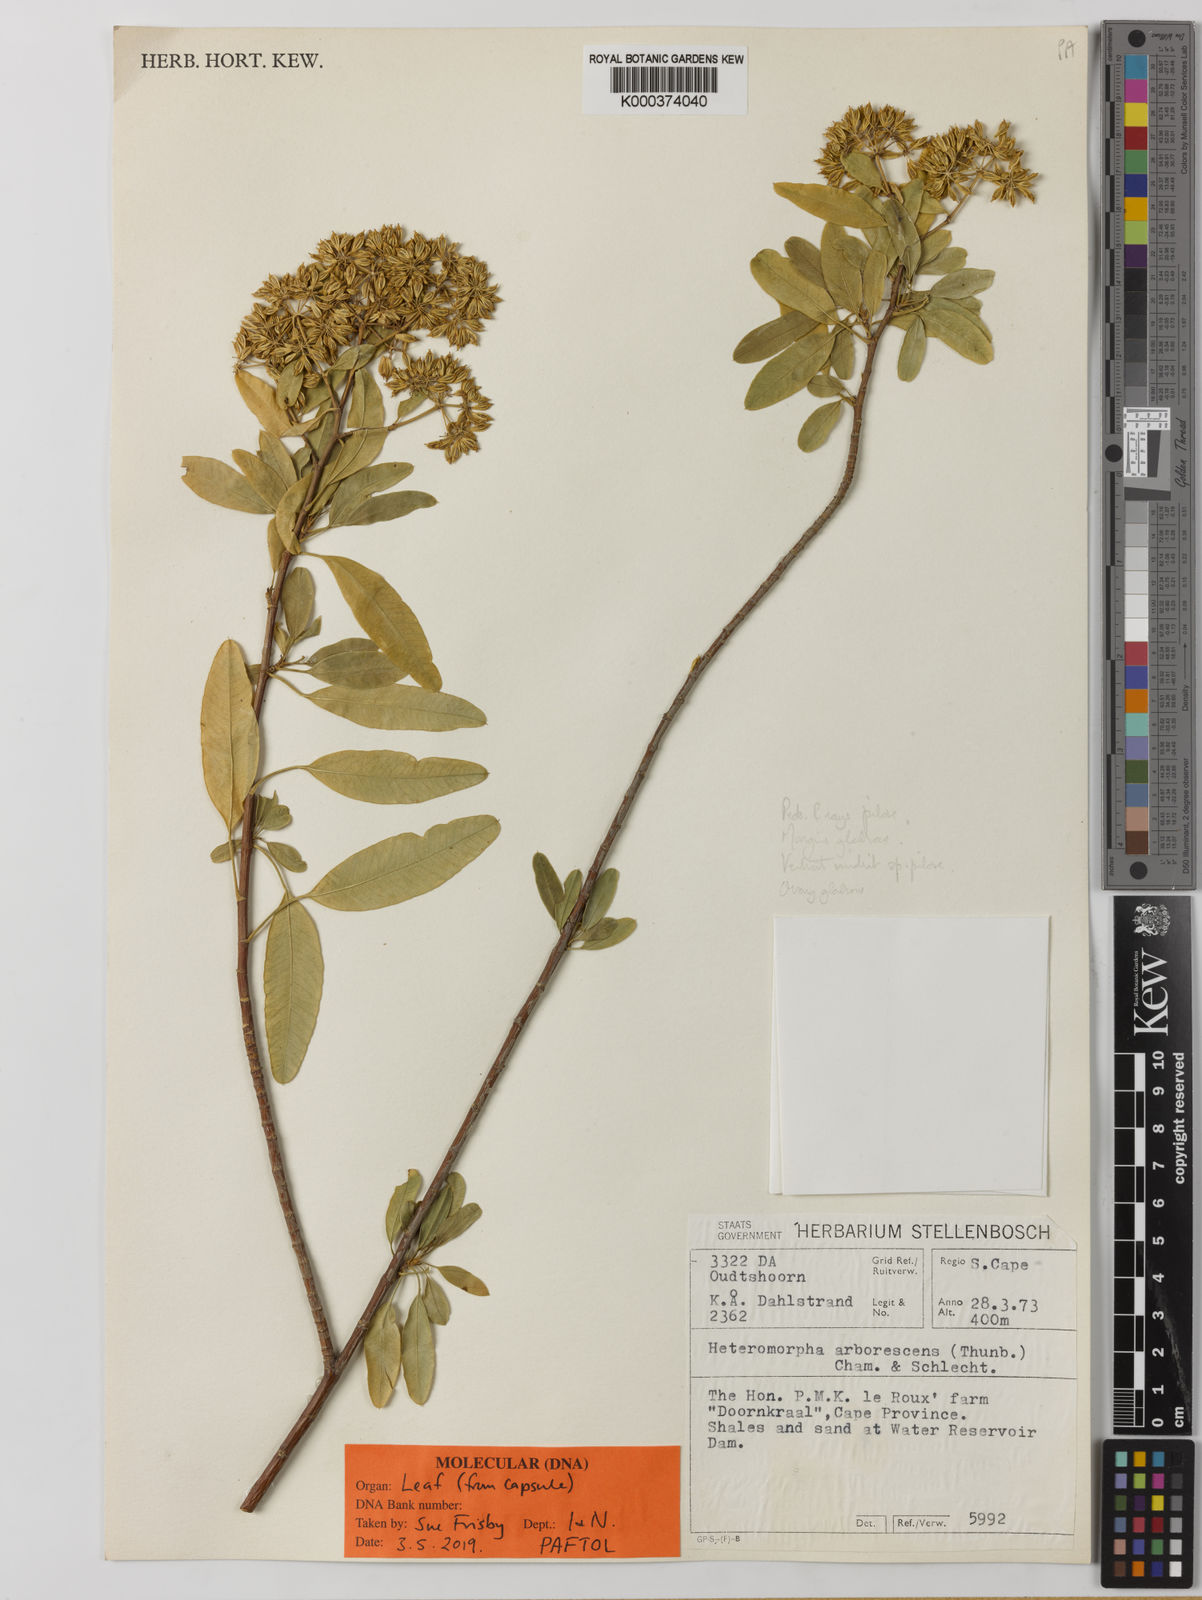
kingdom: Plantae
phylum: Tracheophyta
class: Magnoliopsida
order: Apiales
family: Apiaceae
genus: Heteromorpha
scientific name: Heteromorpha arborescens
